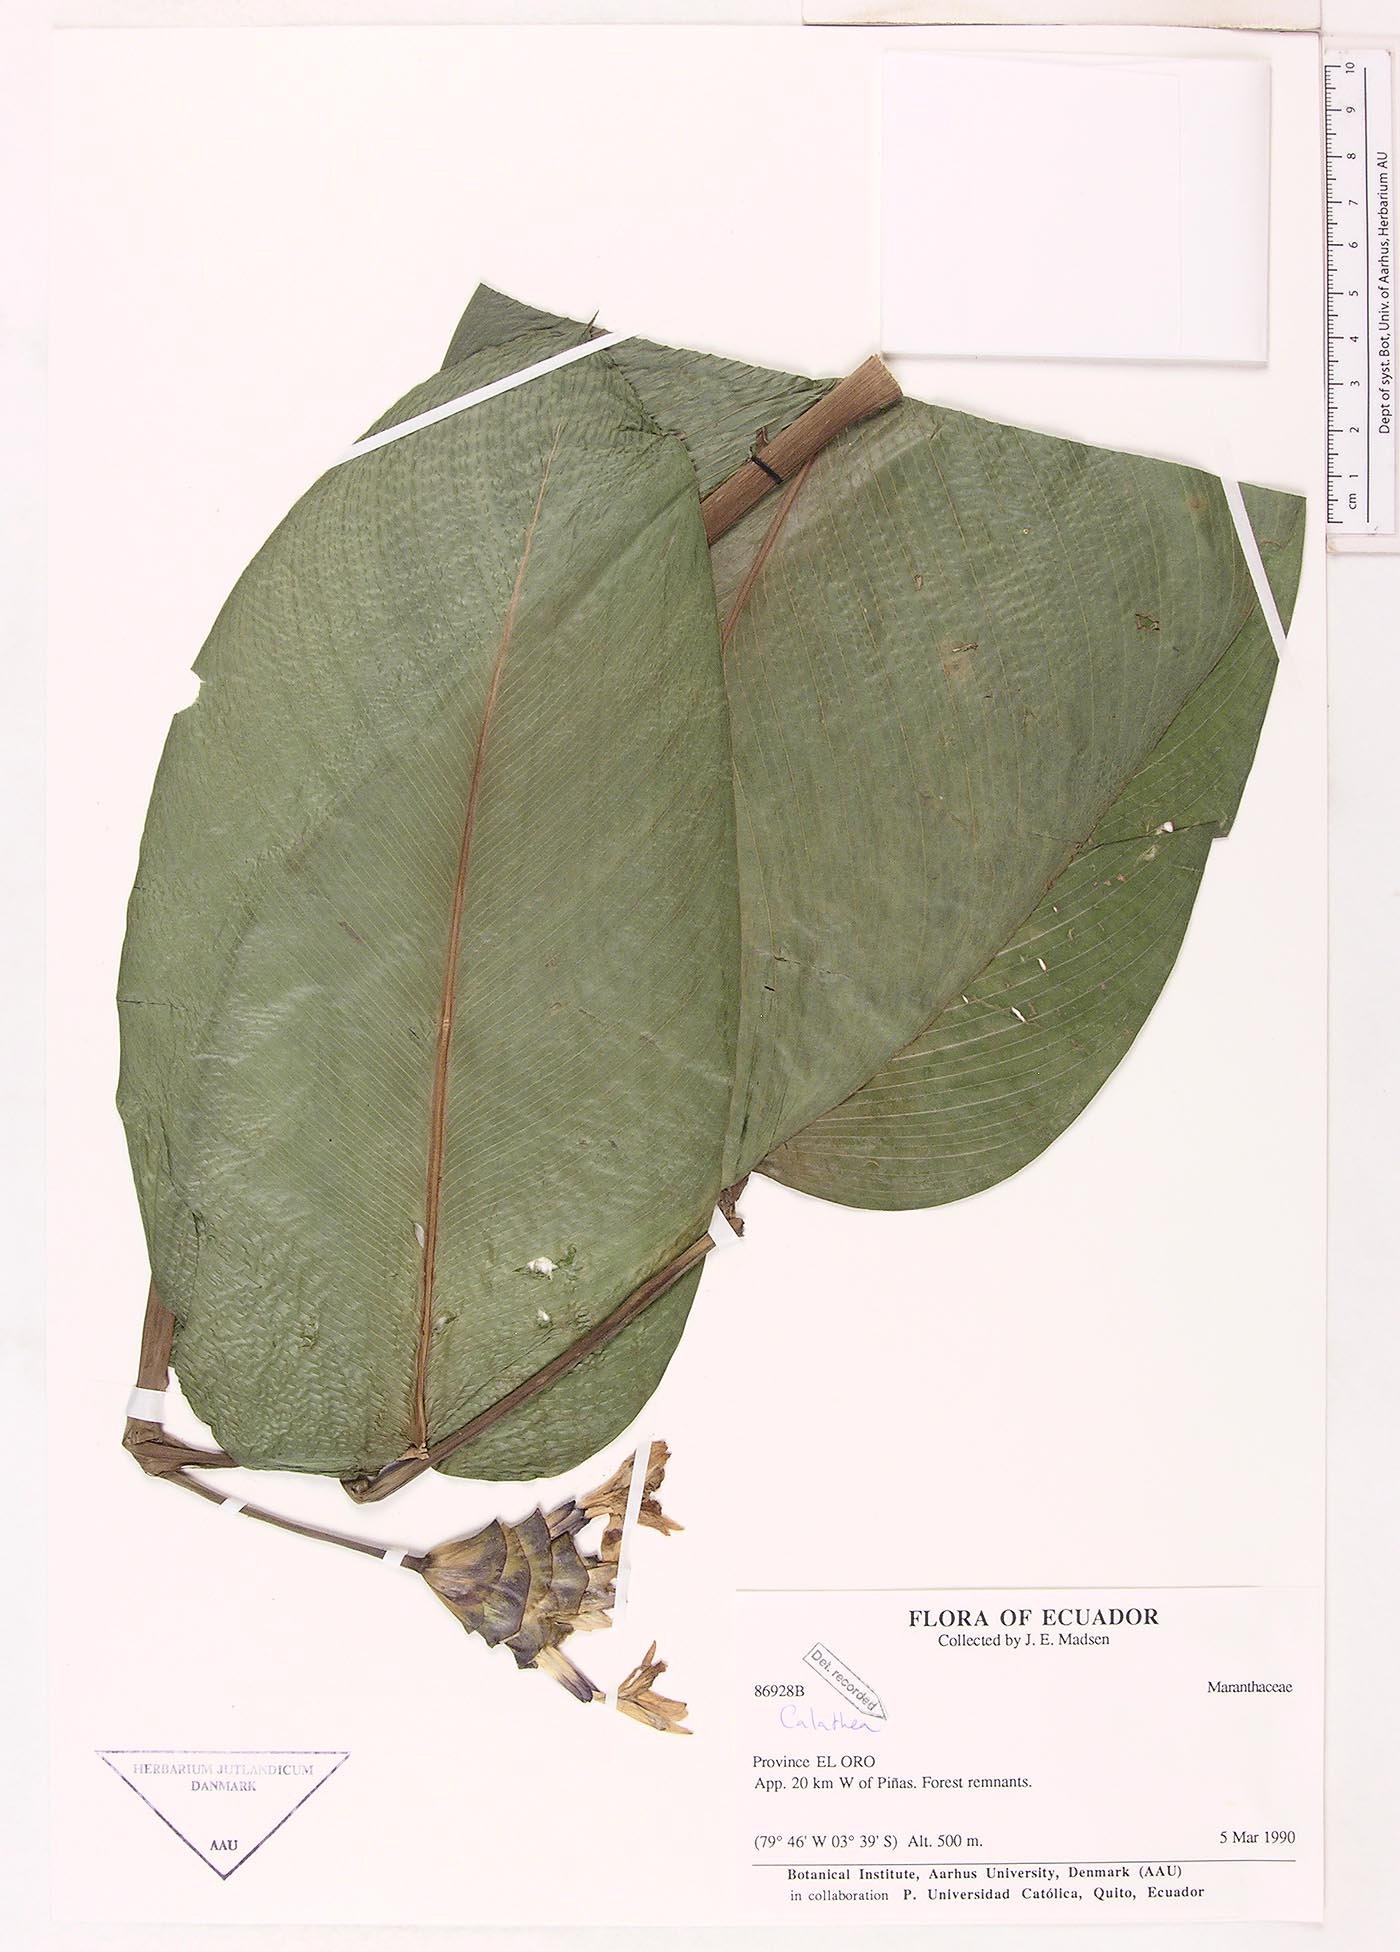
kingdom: Plantae
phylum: Tracheophyta
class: Magnoliopsida
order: Laurales
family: Lauraceae
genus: Goeppertia
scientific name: Goeppertia
